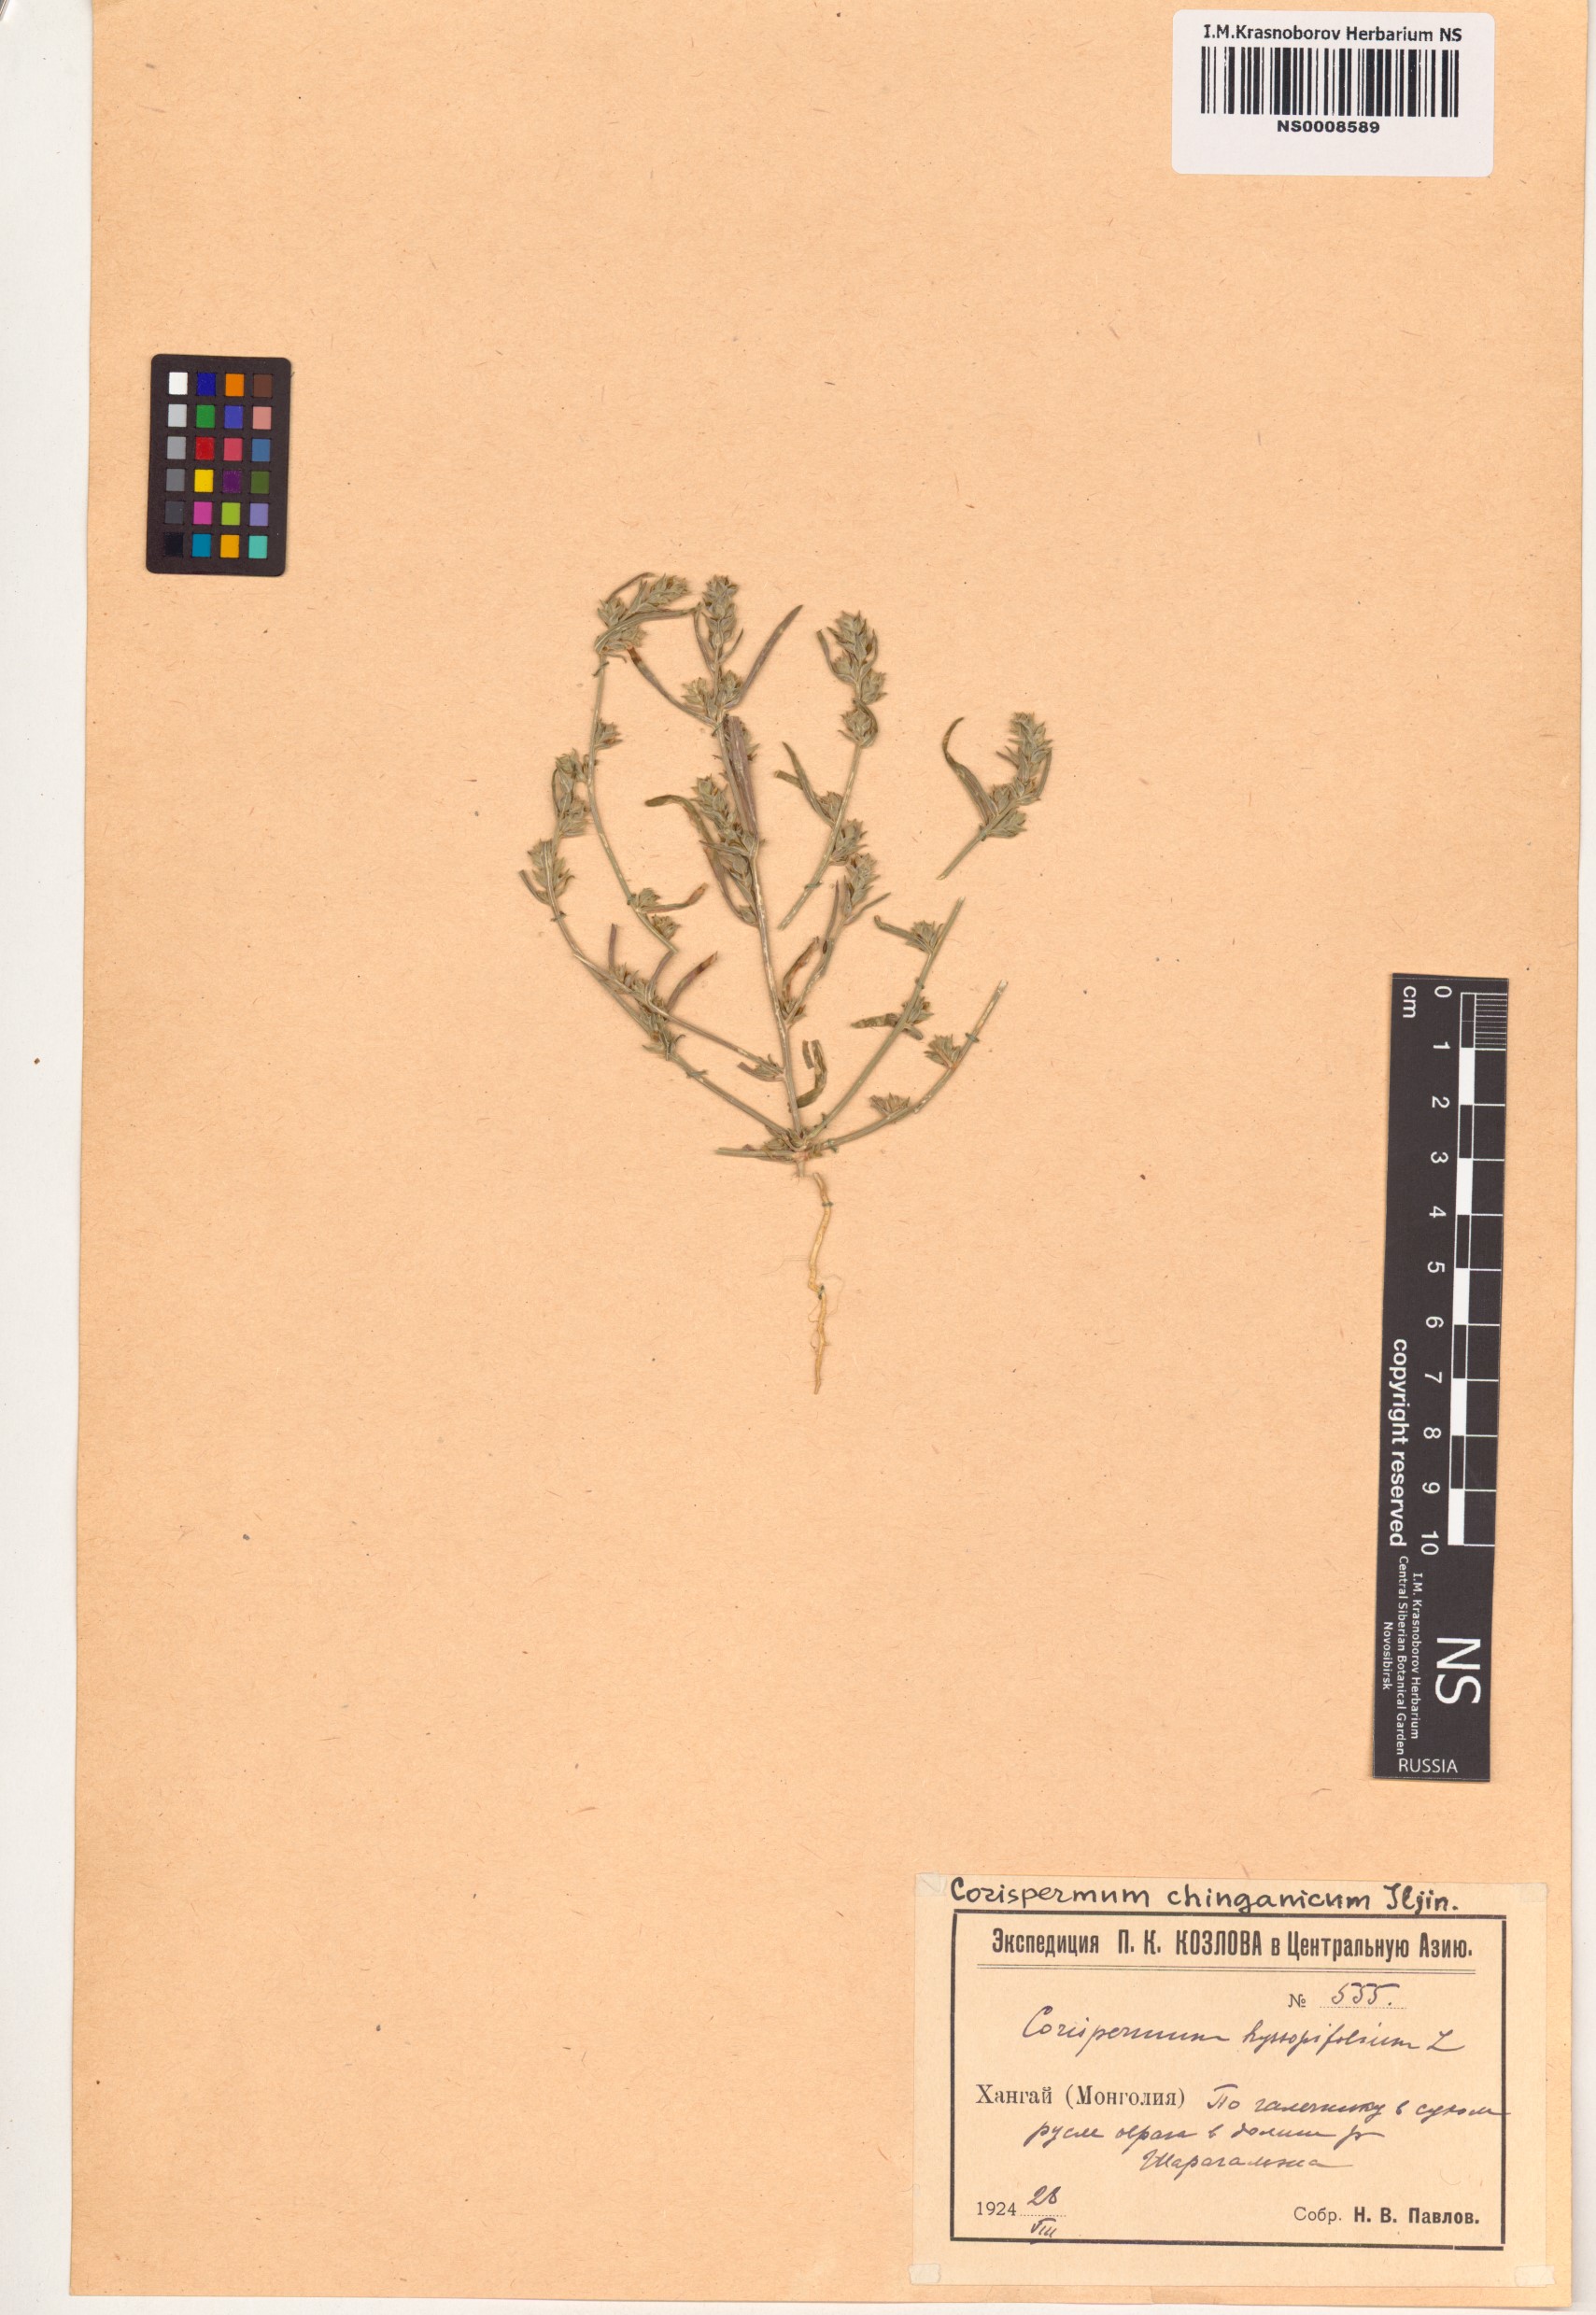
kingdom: Plantae
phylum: Tracheophyta
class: Magnoliopsida
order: Caryophyllales
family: Amaranthaceae
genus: Corispermum
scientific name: Corispermum chinganicum
